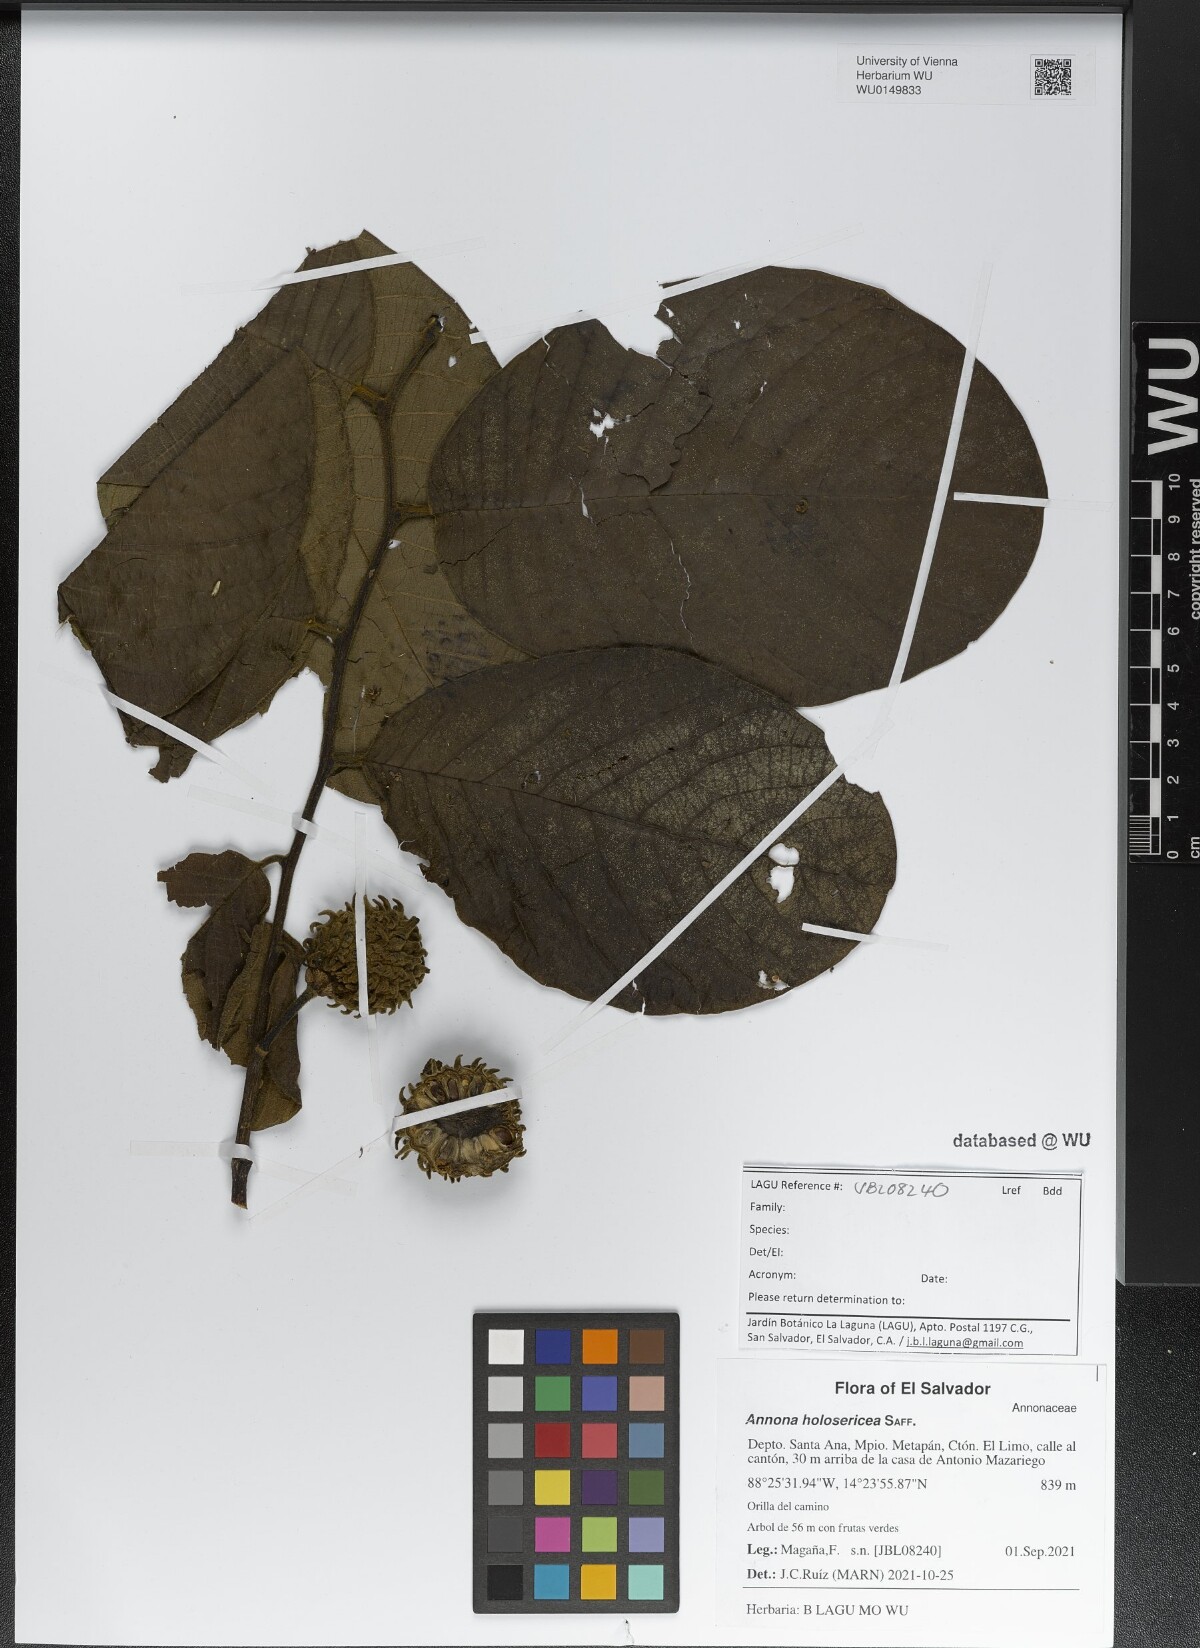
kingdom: Plantae
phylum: Tracheophyta
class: Magnoliopsida
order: Magnoliales
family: Annonaceae
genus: Annona
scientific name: Annona holosericea
